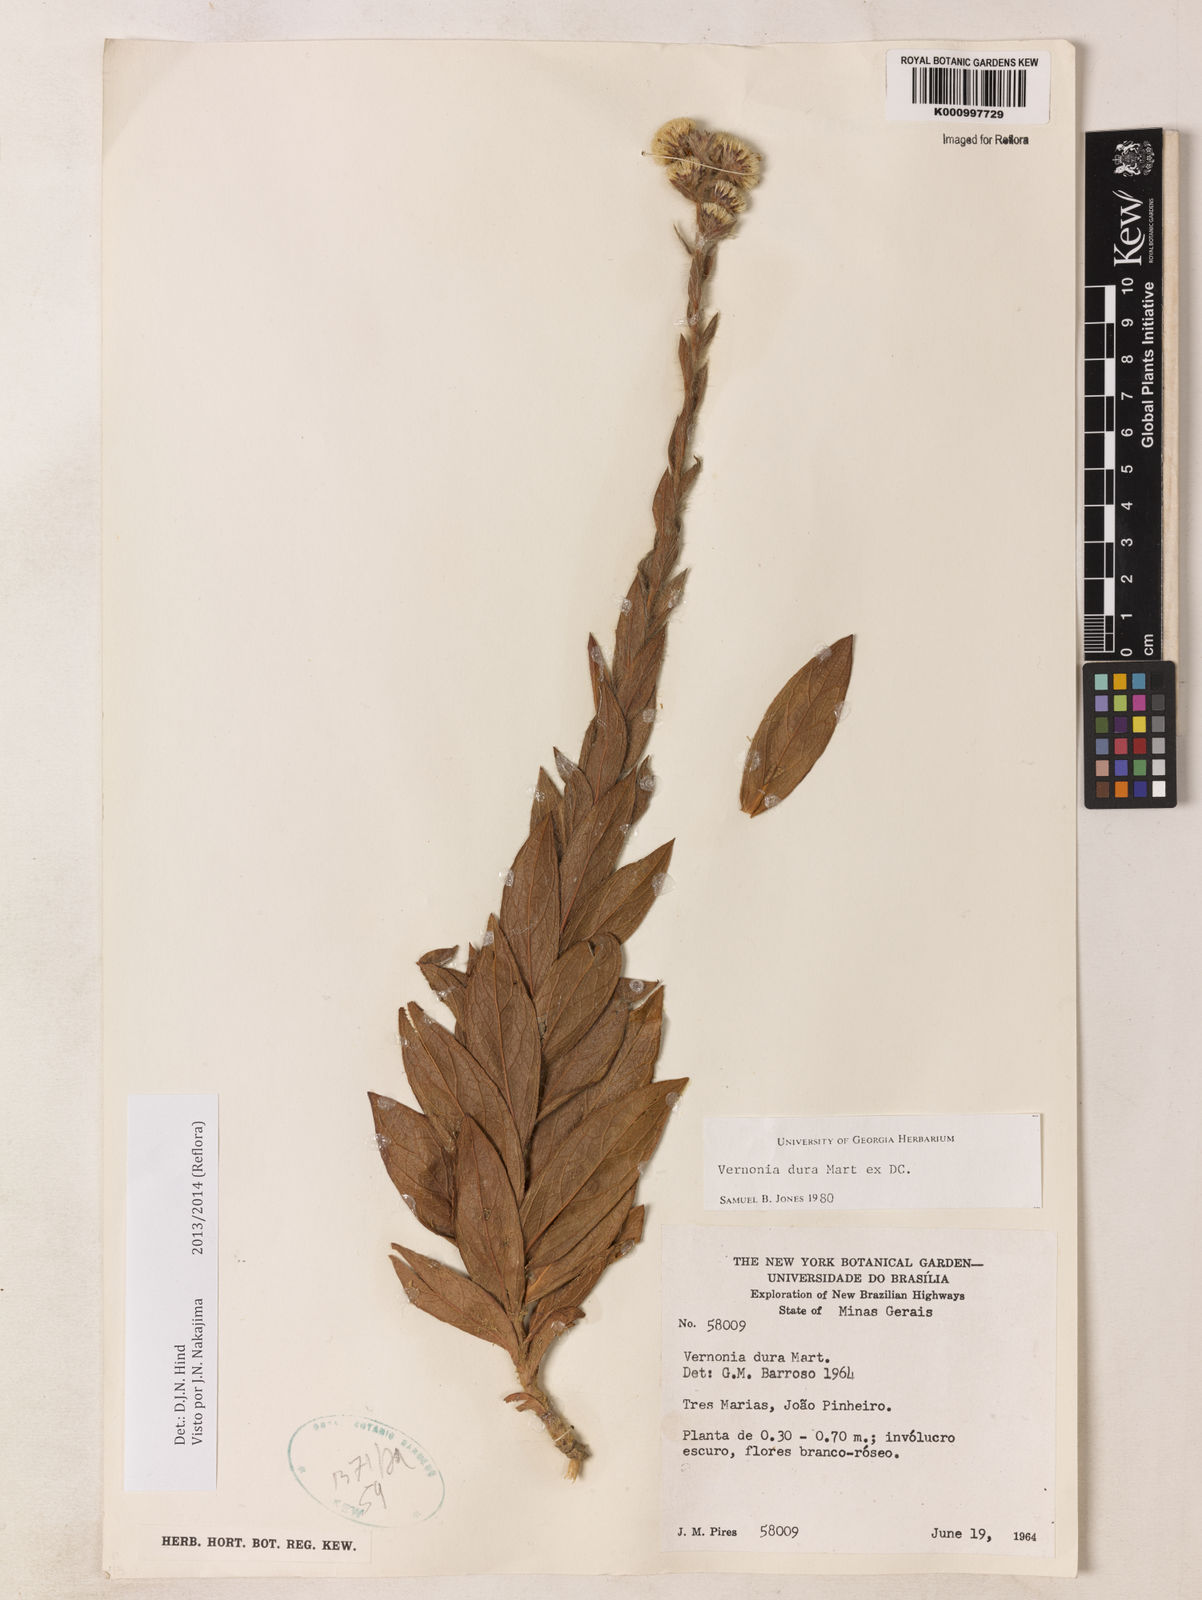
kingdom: Plantae
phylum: Tracheophyta
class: Magnoliopsida
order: Asterales
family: Asteraceae
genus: Lessingianthus
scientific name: Lessingianthus durus
